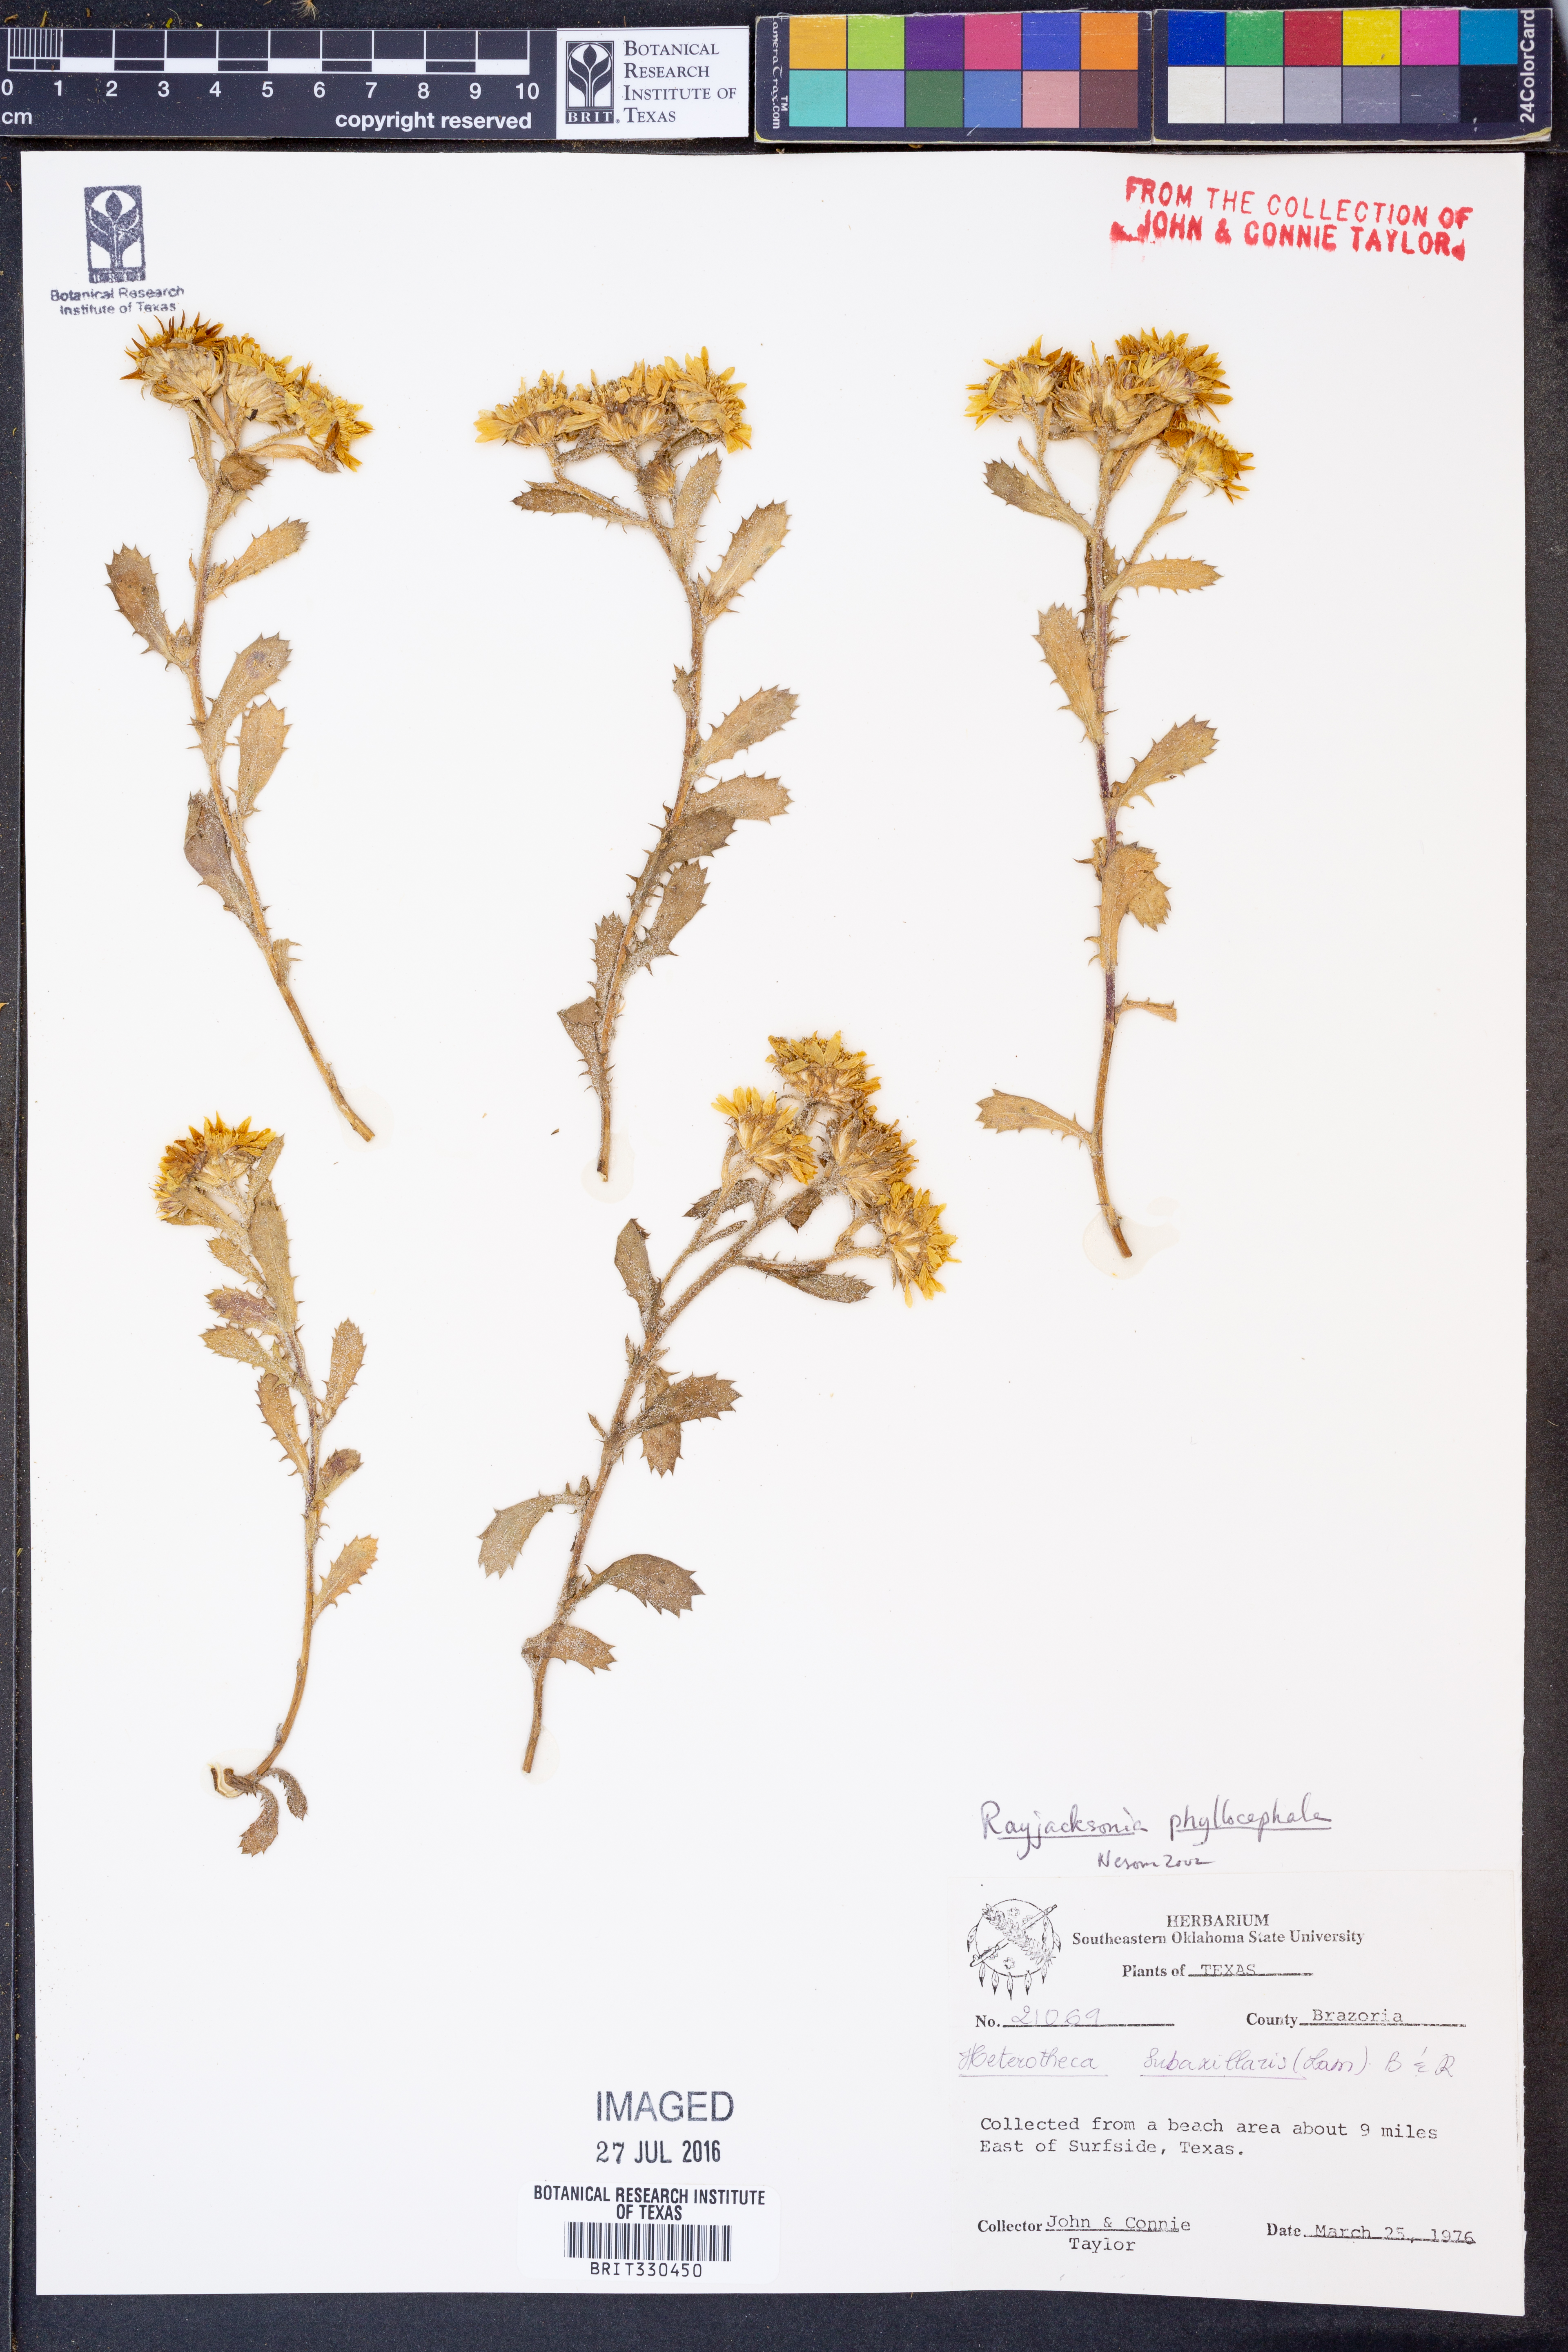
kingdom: Plantae
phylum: Tracheophyta
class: Magnoliopsida
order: Asterales
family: Asteraceae
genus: Rayjacksonia
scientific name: Rayjacksonia phyllocephala
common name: Gulf coast camphor daisy
